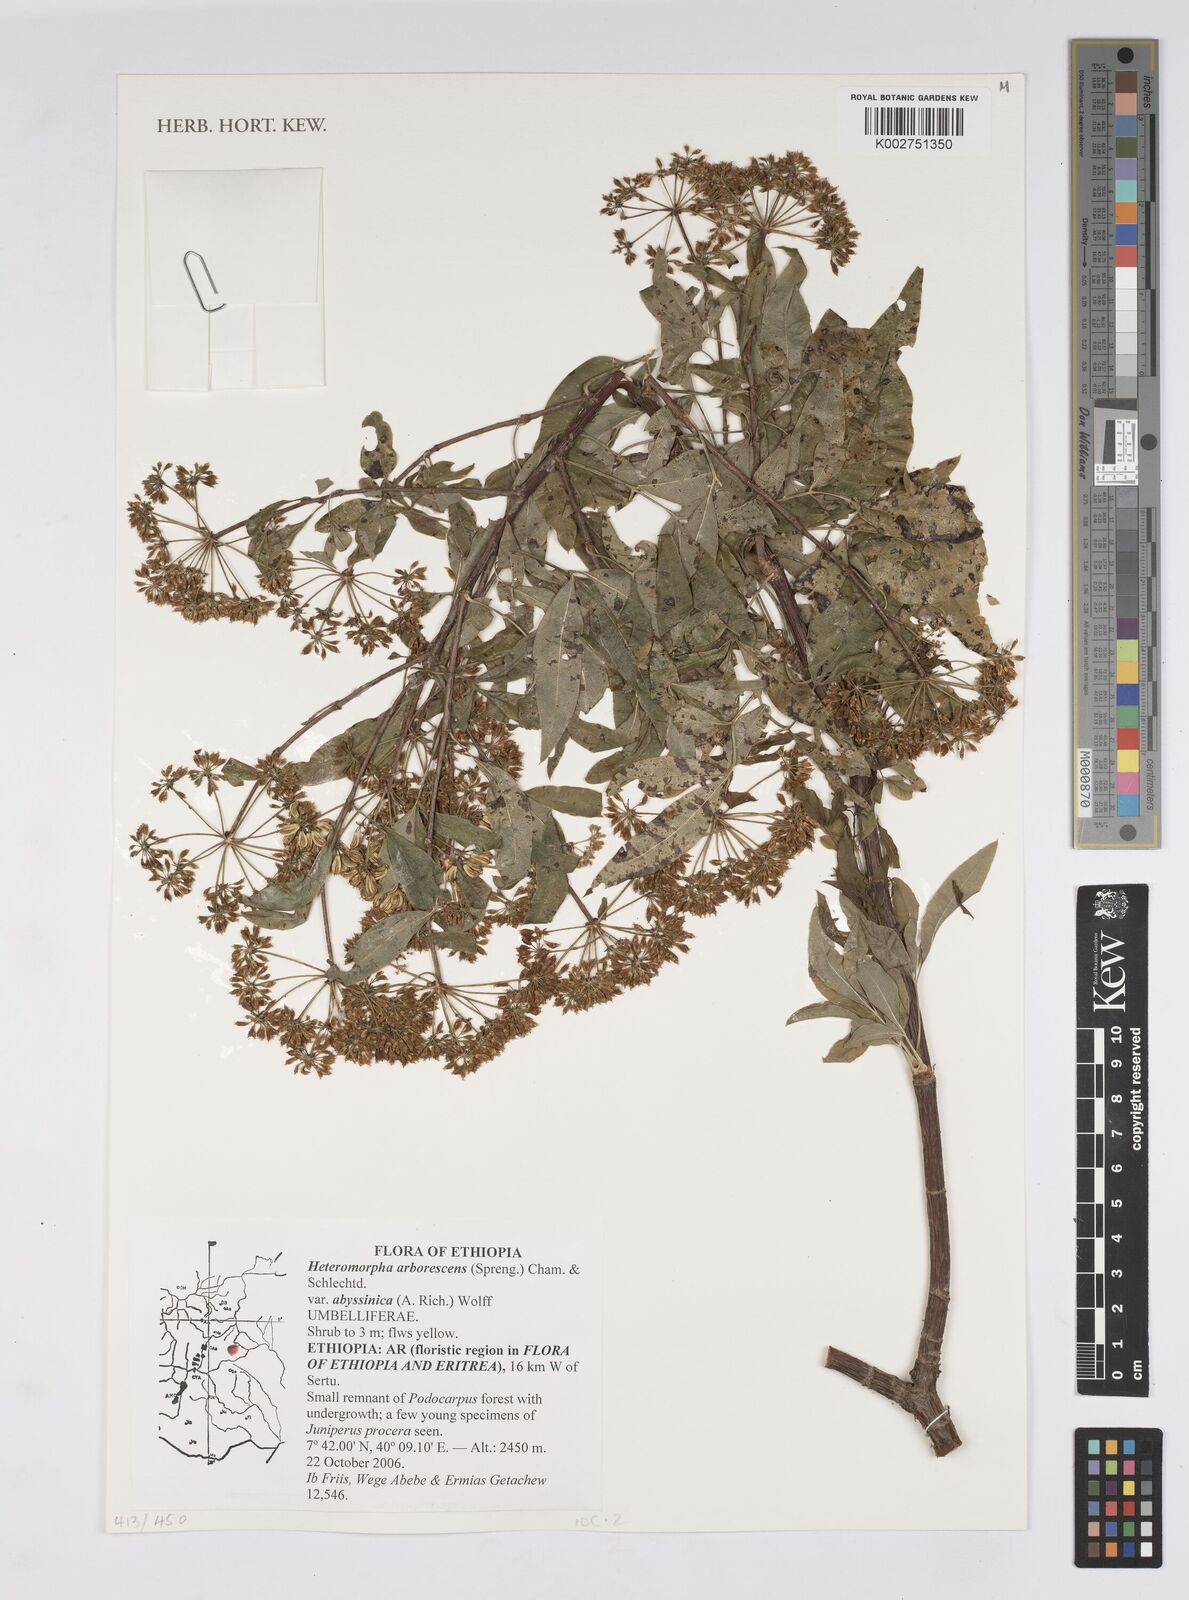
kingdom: Plantae
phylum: Tracheophyta
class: Magnoliopsida
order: Apiales
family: Apiaceae
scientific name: Apiaceae
